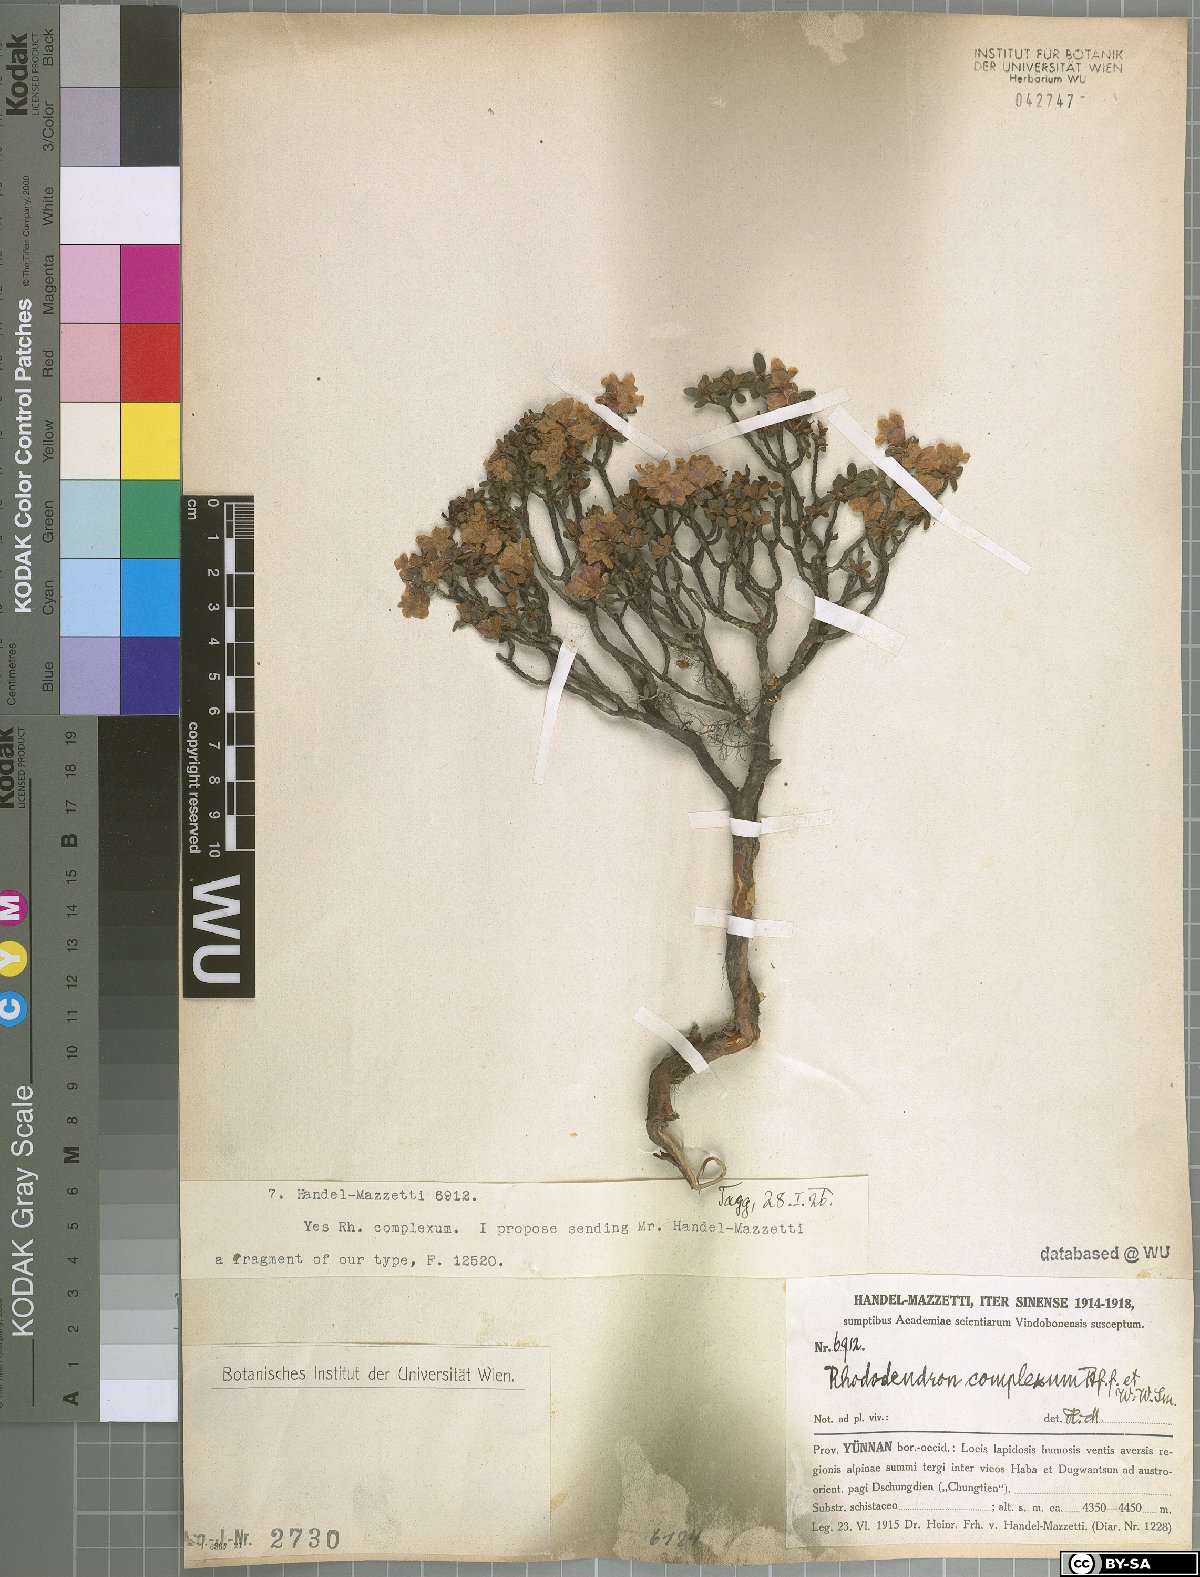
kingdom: Plantae
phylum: Tracheophyta
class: Magnoliopsida
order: Ericales
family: Ericaceae
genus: Rhododendron
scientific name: Rhododendron complexum
